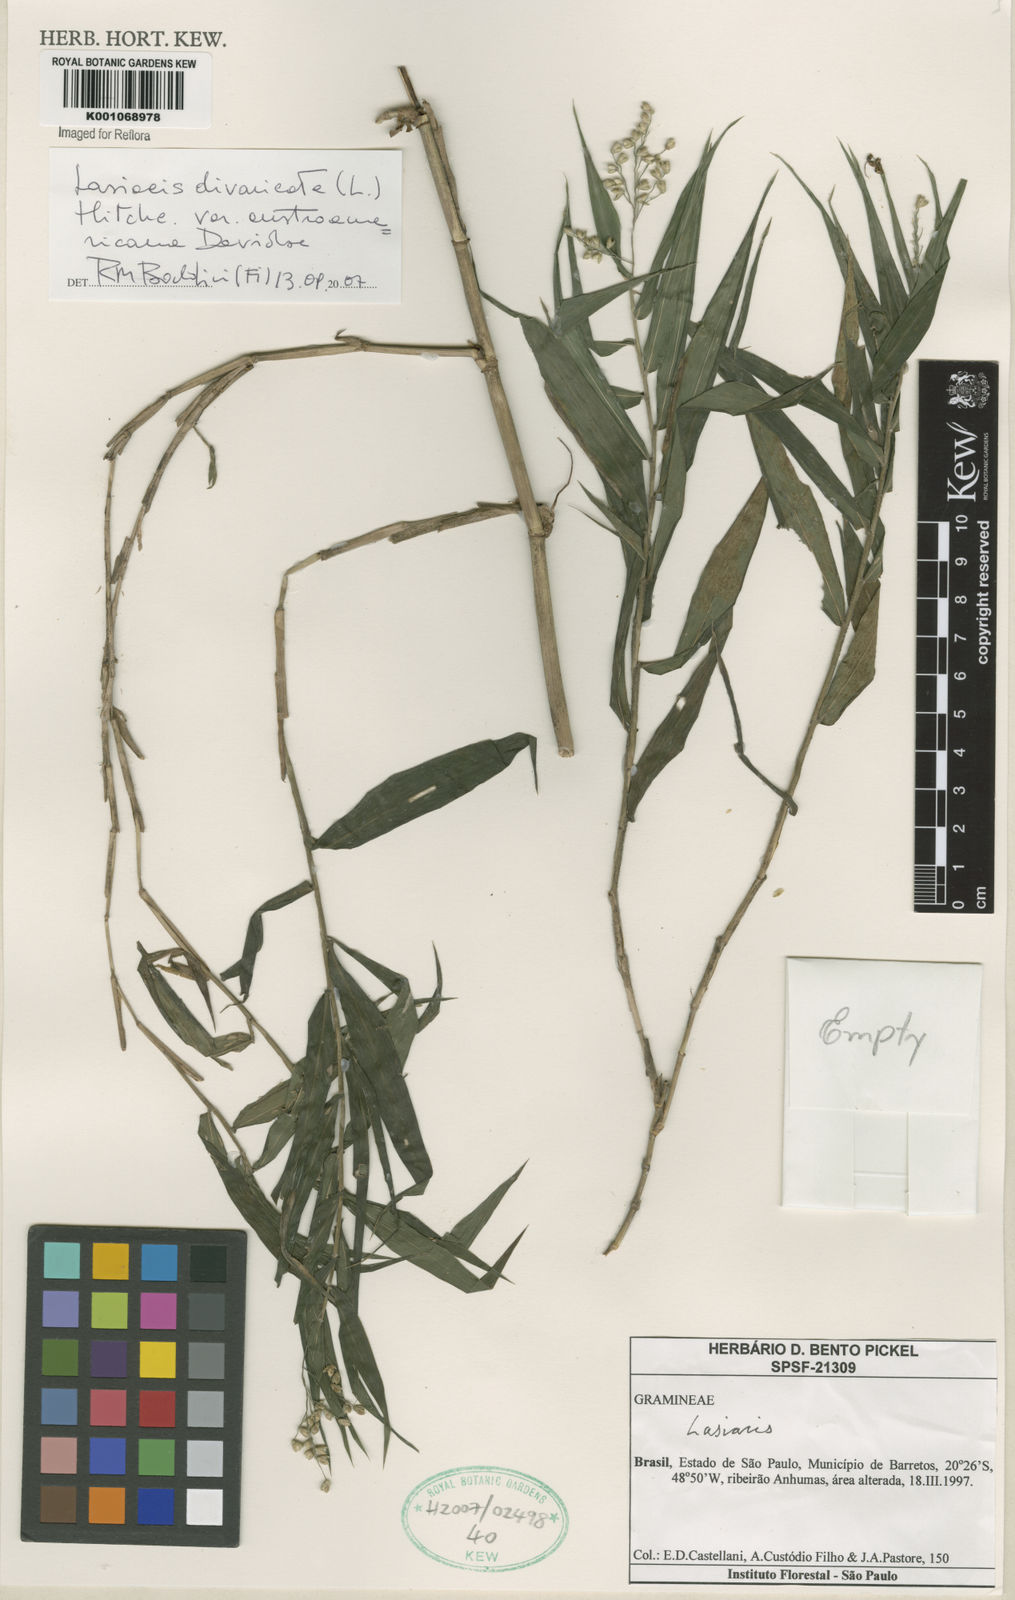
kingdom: Plantae
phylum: Tracheophyta
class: Liliopsida
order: Poales
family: Poaceae
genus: Lasiacis
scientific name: Lasiacis divaricata
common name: Smallcane
